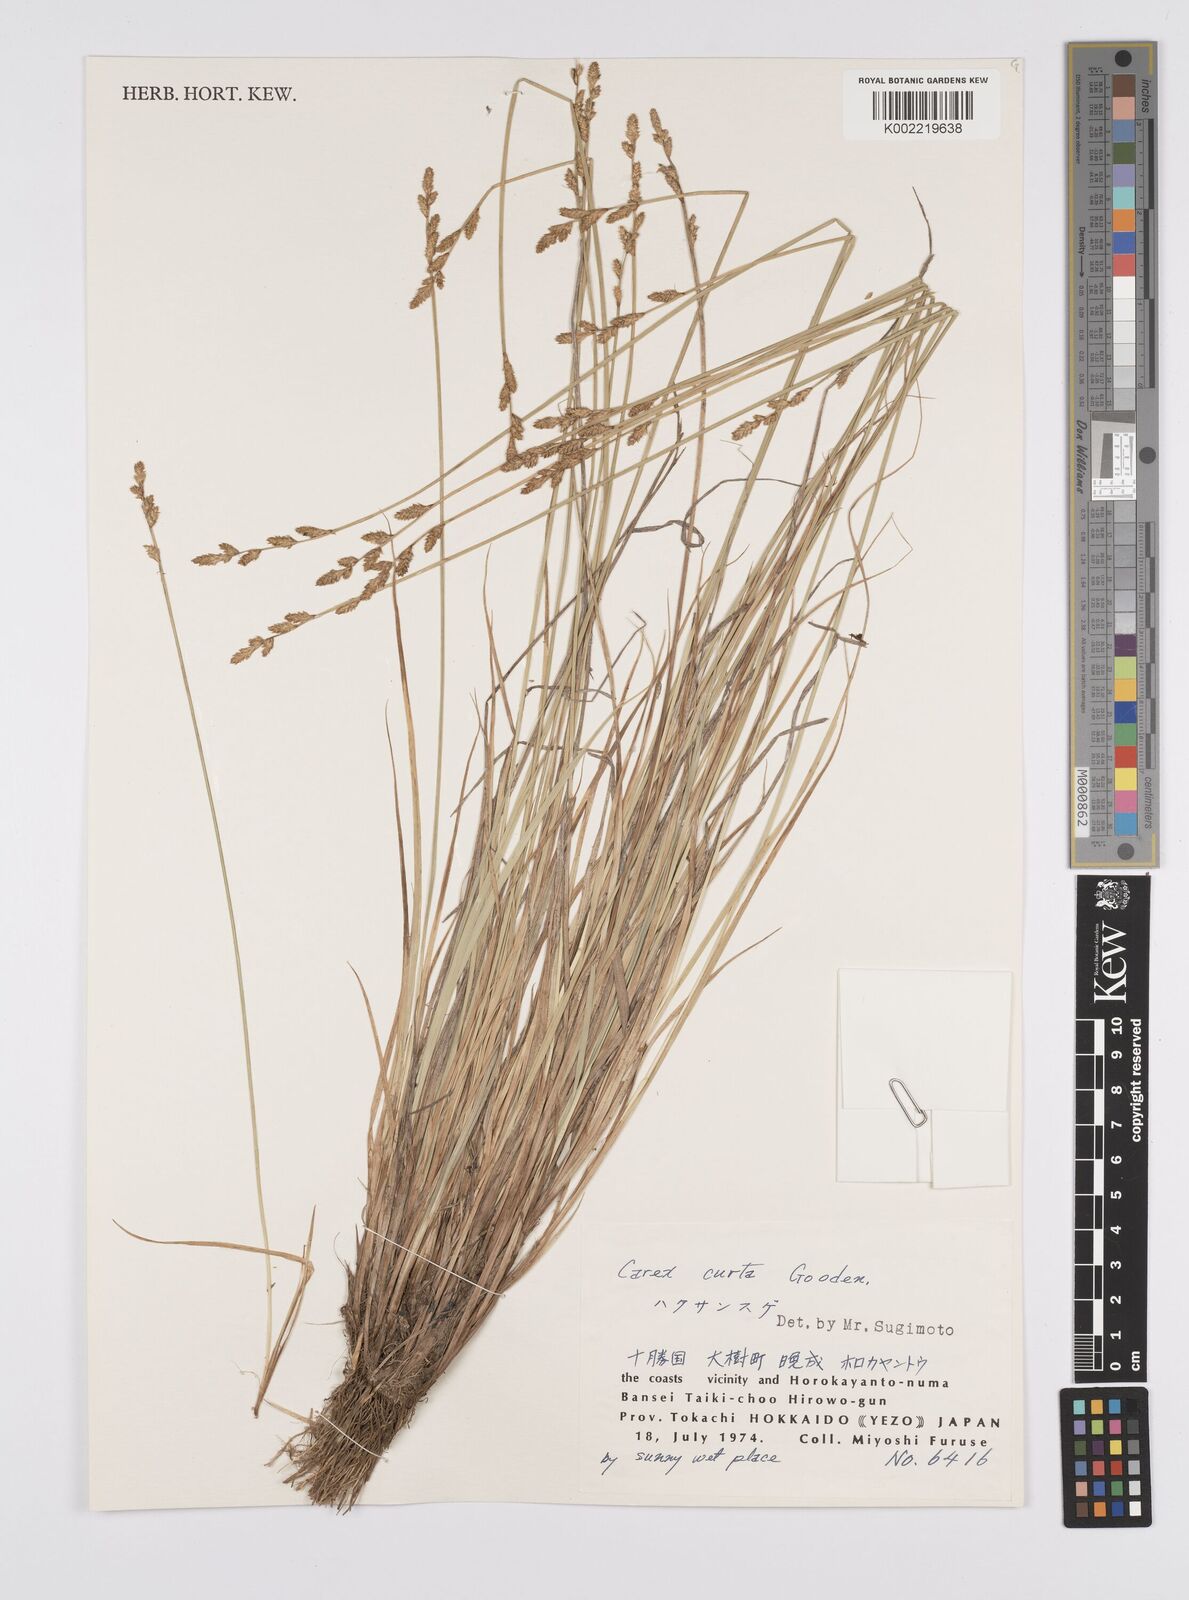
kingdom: Plantae
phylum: Tracheophyta
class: Liliopsida
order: Poales
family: Cyperaceae
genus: Carex
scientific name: Carex canescens
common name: White sedge
